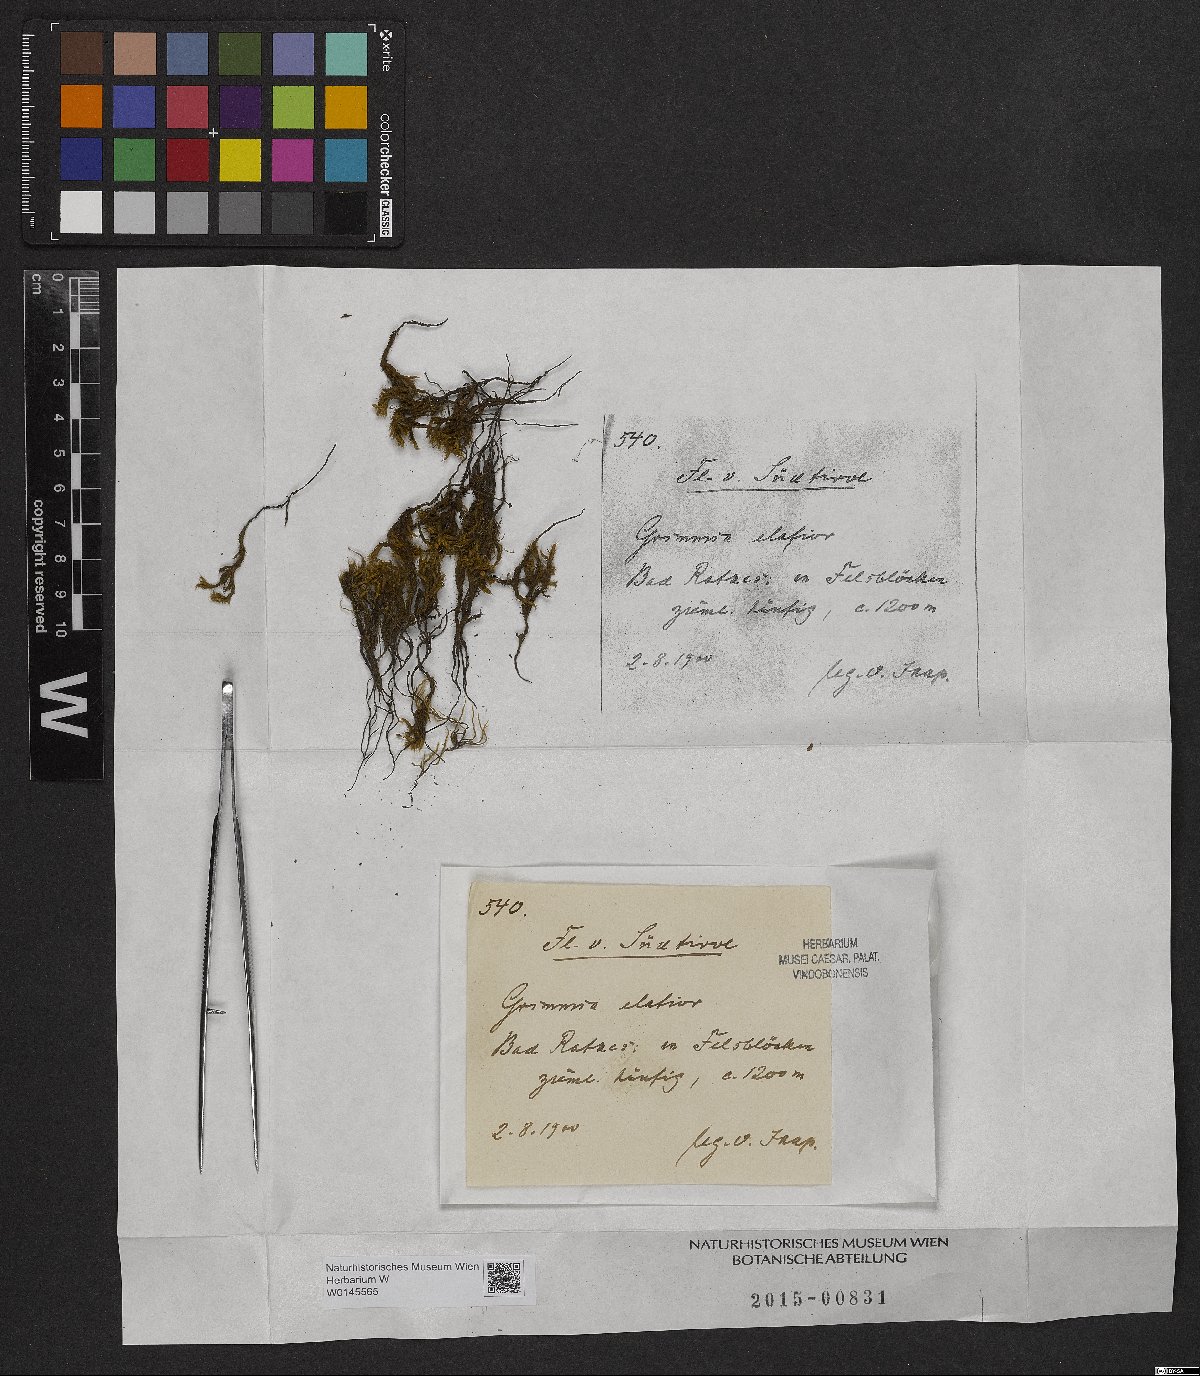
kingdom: Plantae
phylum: Bryophyta
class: Bryopsida
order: Grimmiales
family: Grimmiaceae
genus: Grimmia
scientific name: Grimmia elatior
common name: Large grimmia
